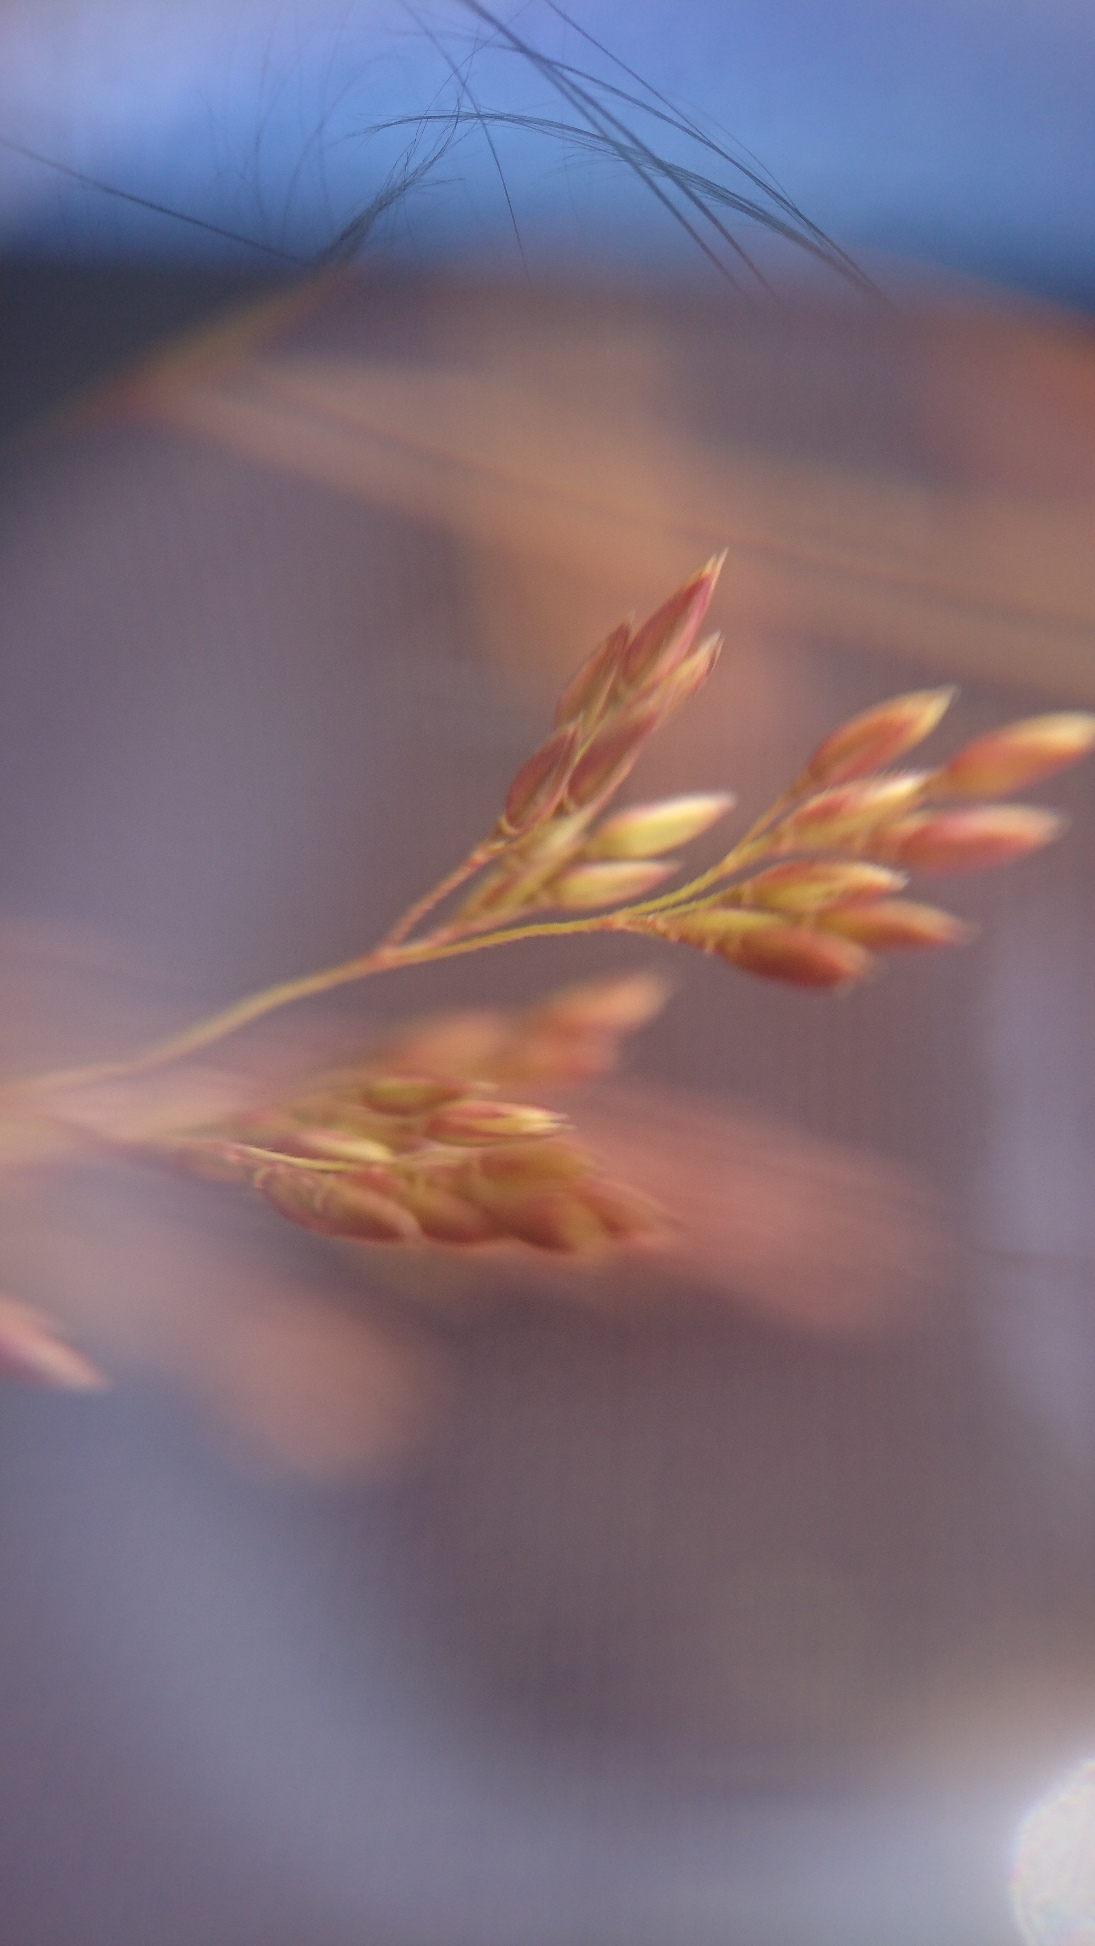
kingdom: Plantae
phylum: Tracheophyta
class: Liliopsida
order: Poales
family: Poaceae
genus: Agrostis
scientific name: Agrostis gigantea
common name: Stortoppet hvene
